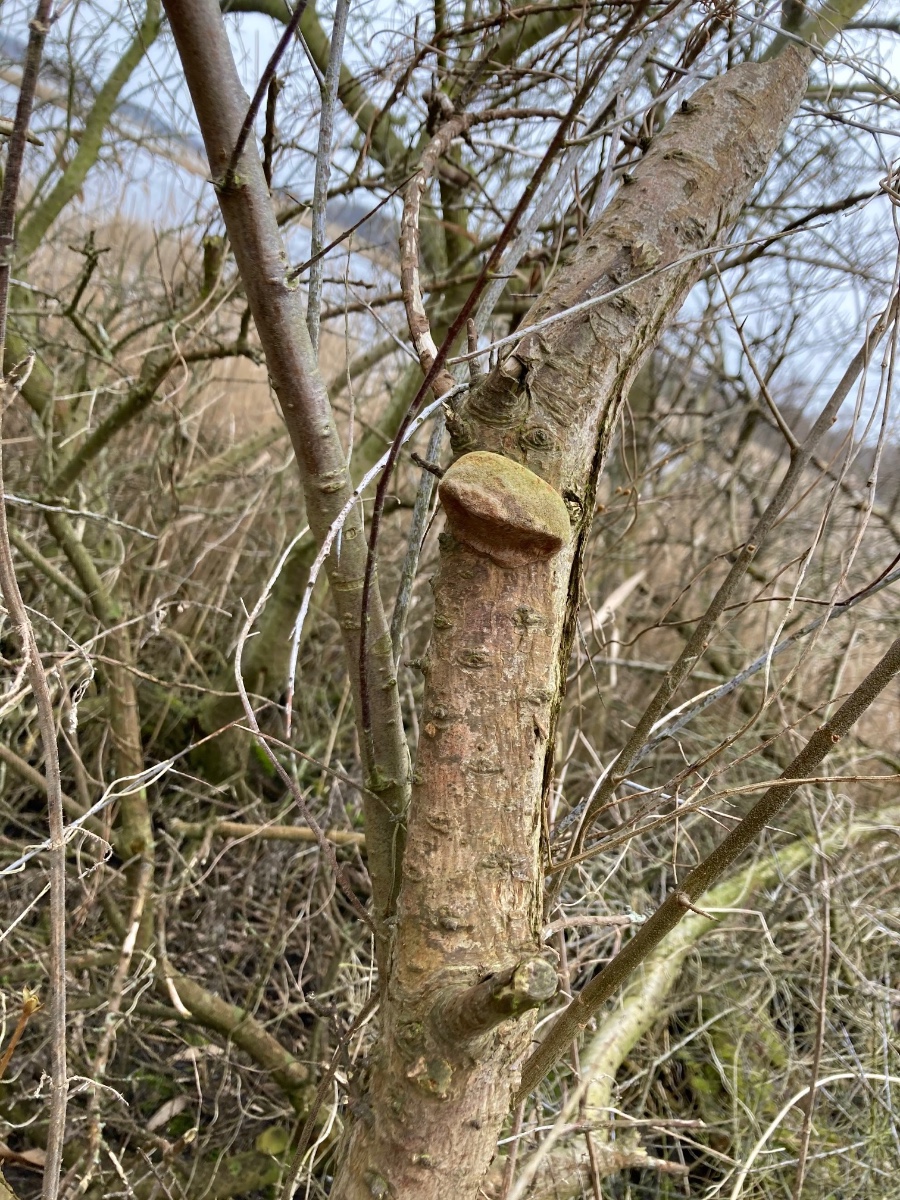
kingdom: Fungi
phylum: Basidiomycota
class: Agaricomycetes
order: Hymenochaetales
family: Hymenochaetaceae
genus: Fomitiporia
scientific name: Fomitiporia hippophaeicola
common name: havtorn-ildporesvamp
